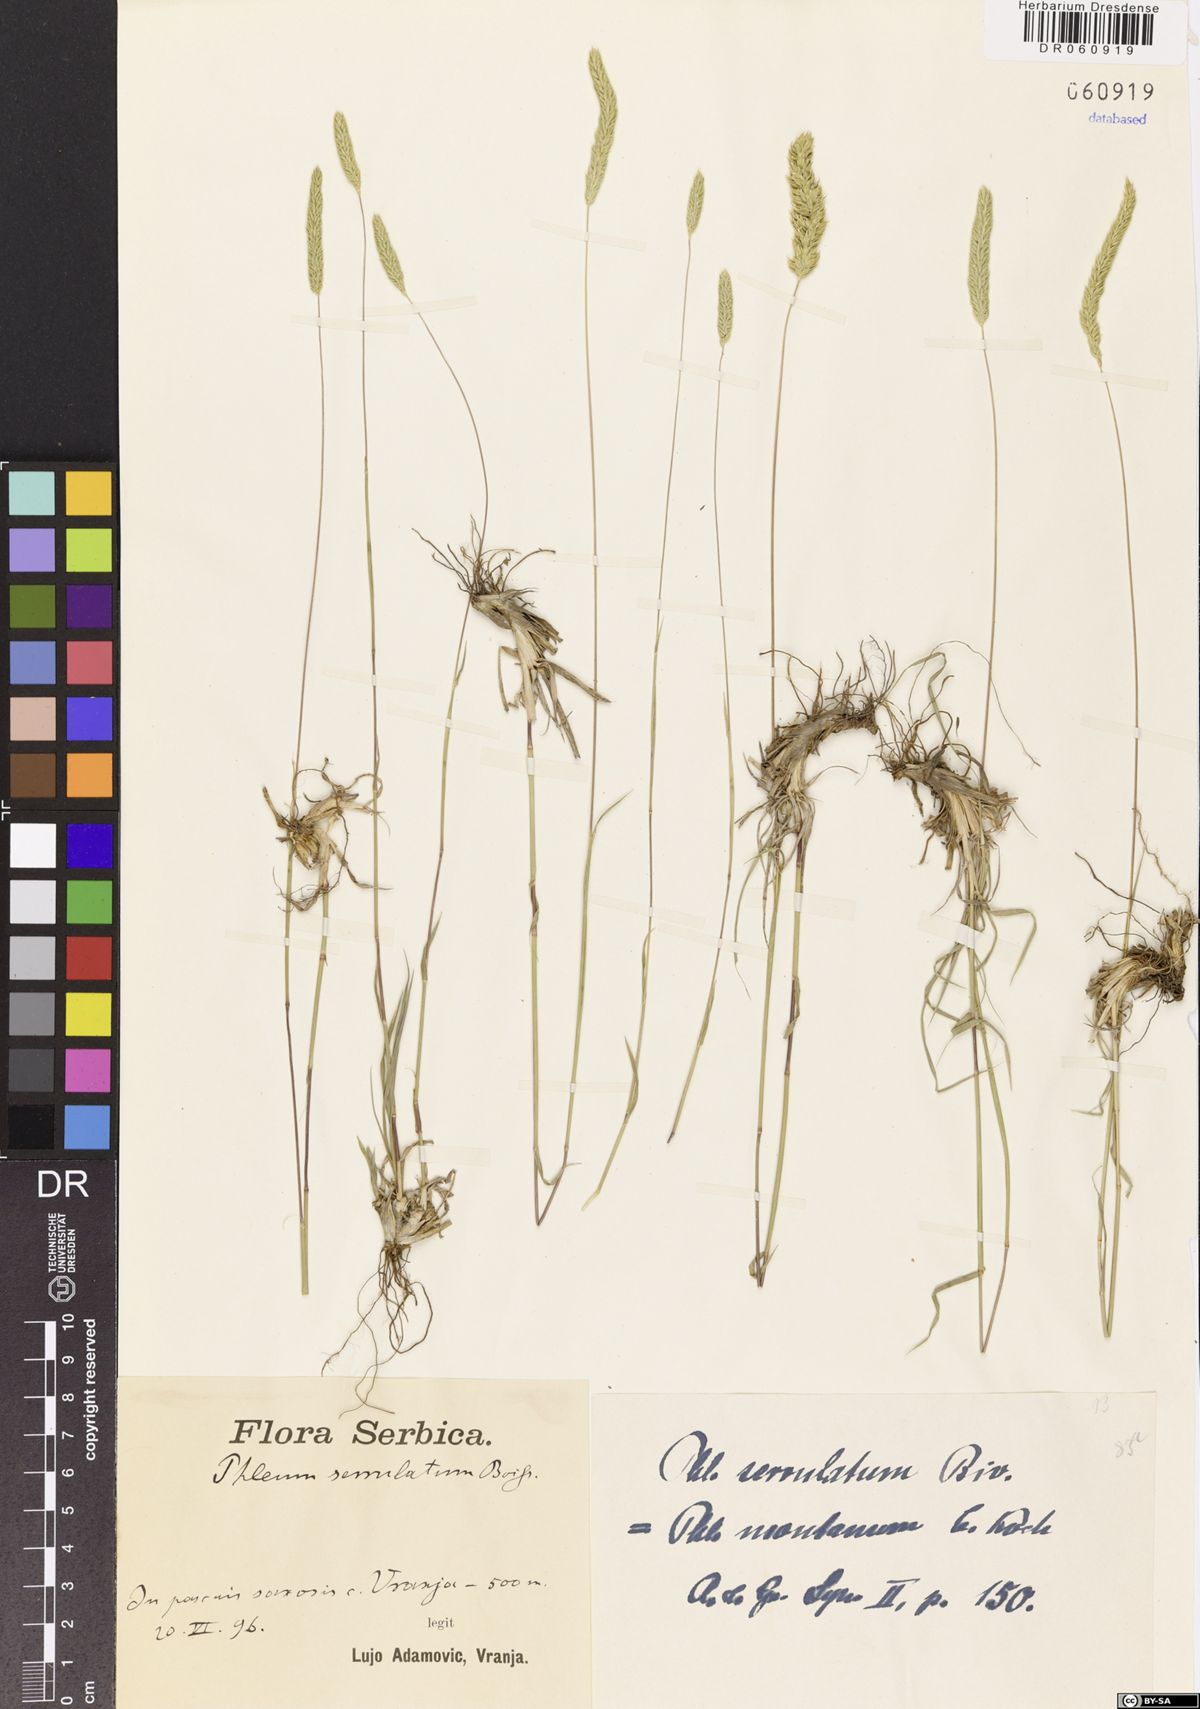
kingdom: Plantae
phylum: Tracheophyta
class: Liliopsida
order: Poales
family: Poaceae
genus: Phleum
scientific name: Phleum montanum
